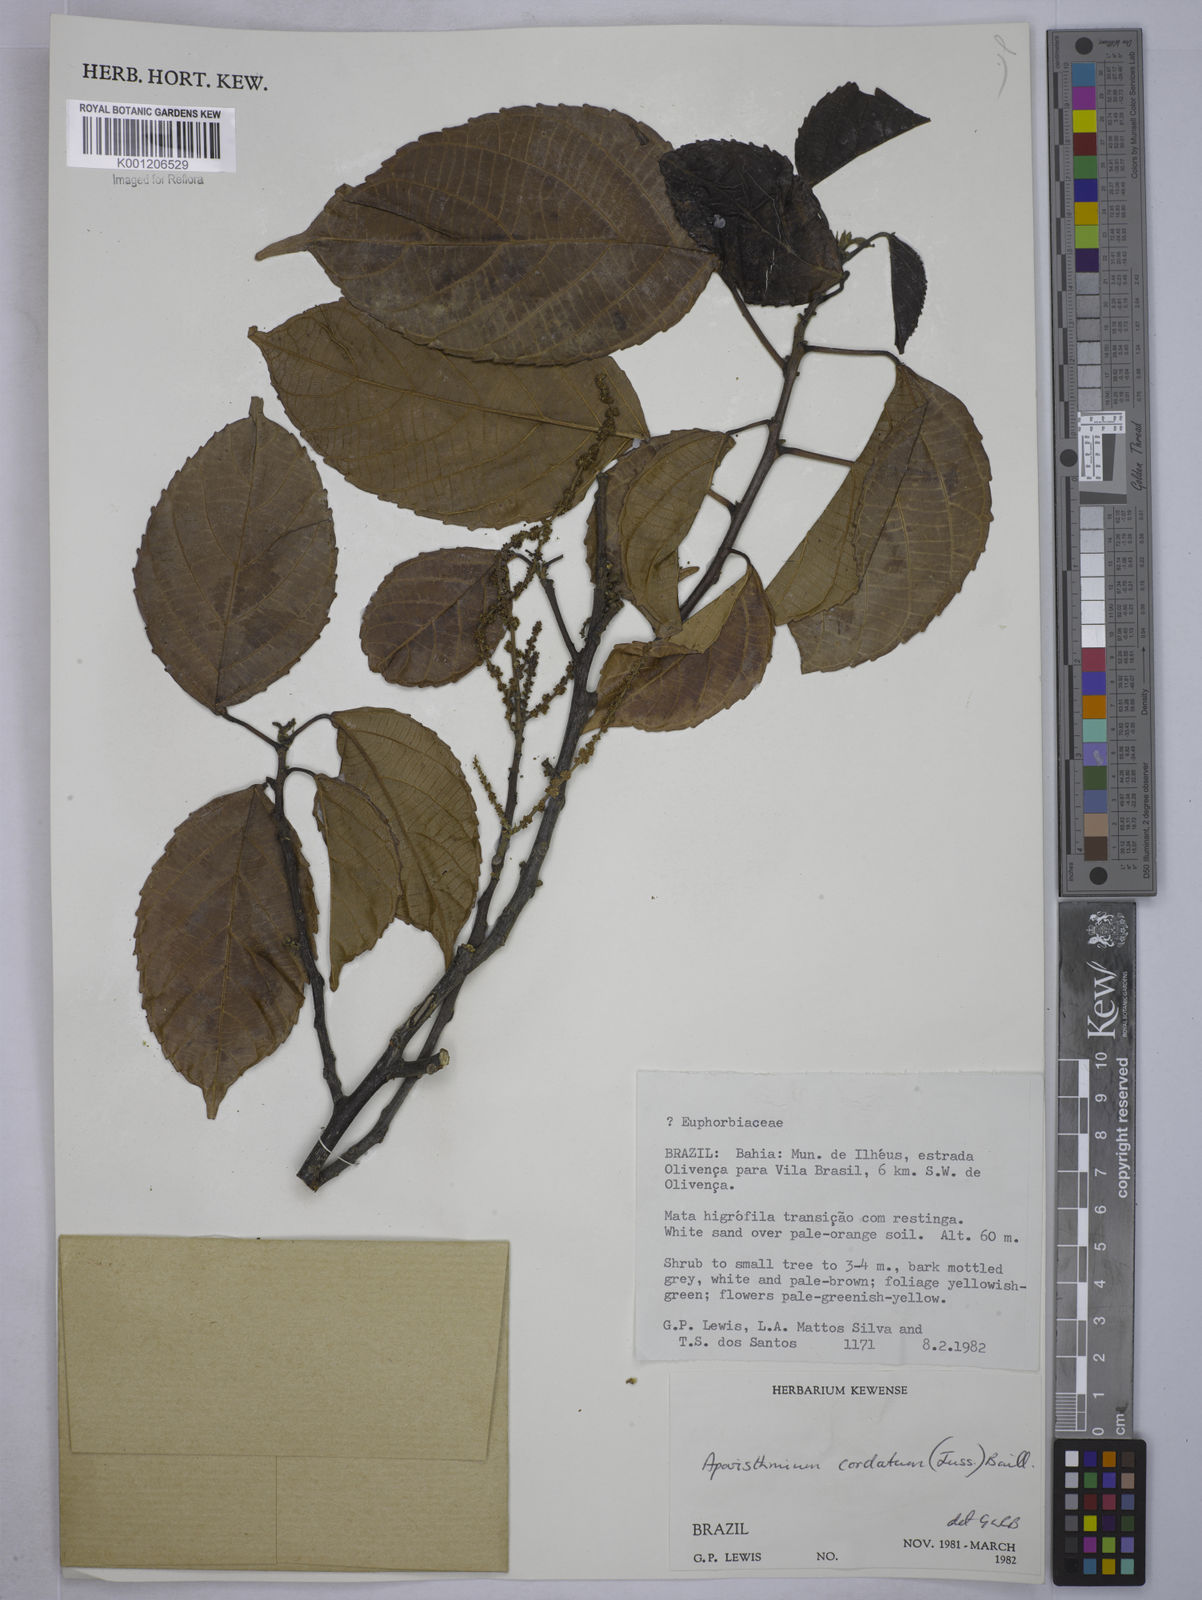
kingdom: Plantae
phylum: Tracheophyta
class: Magnoliopsida
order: Malpighiales
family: Euphorbiaceae
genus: Aparisthmium
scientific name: Aparisthmium cordatum
